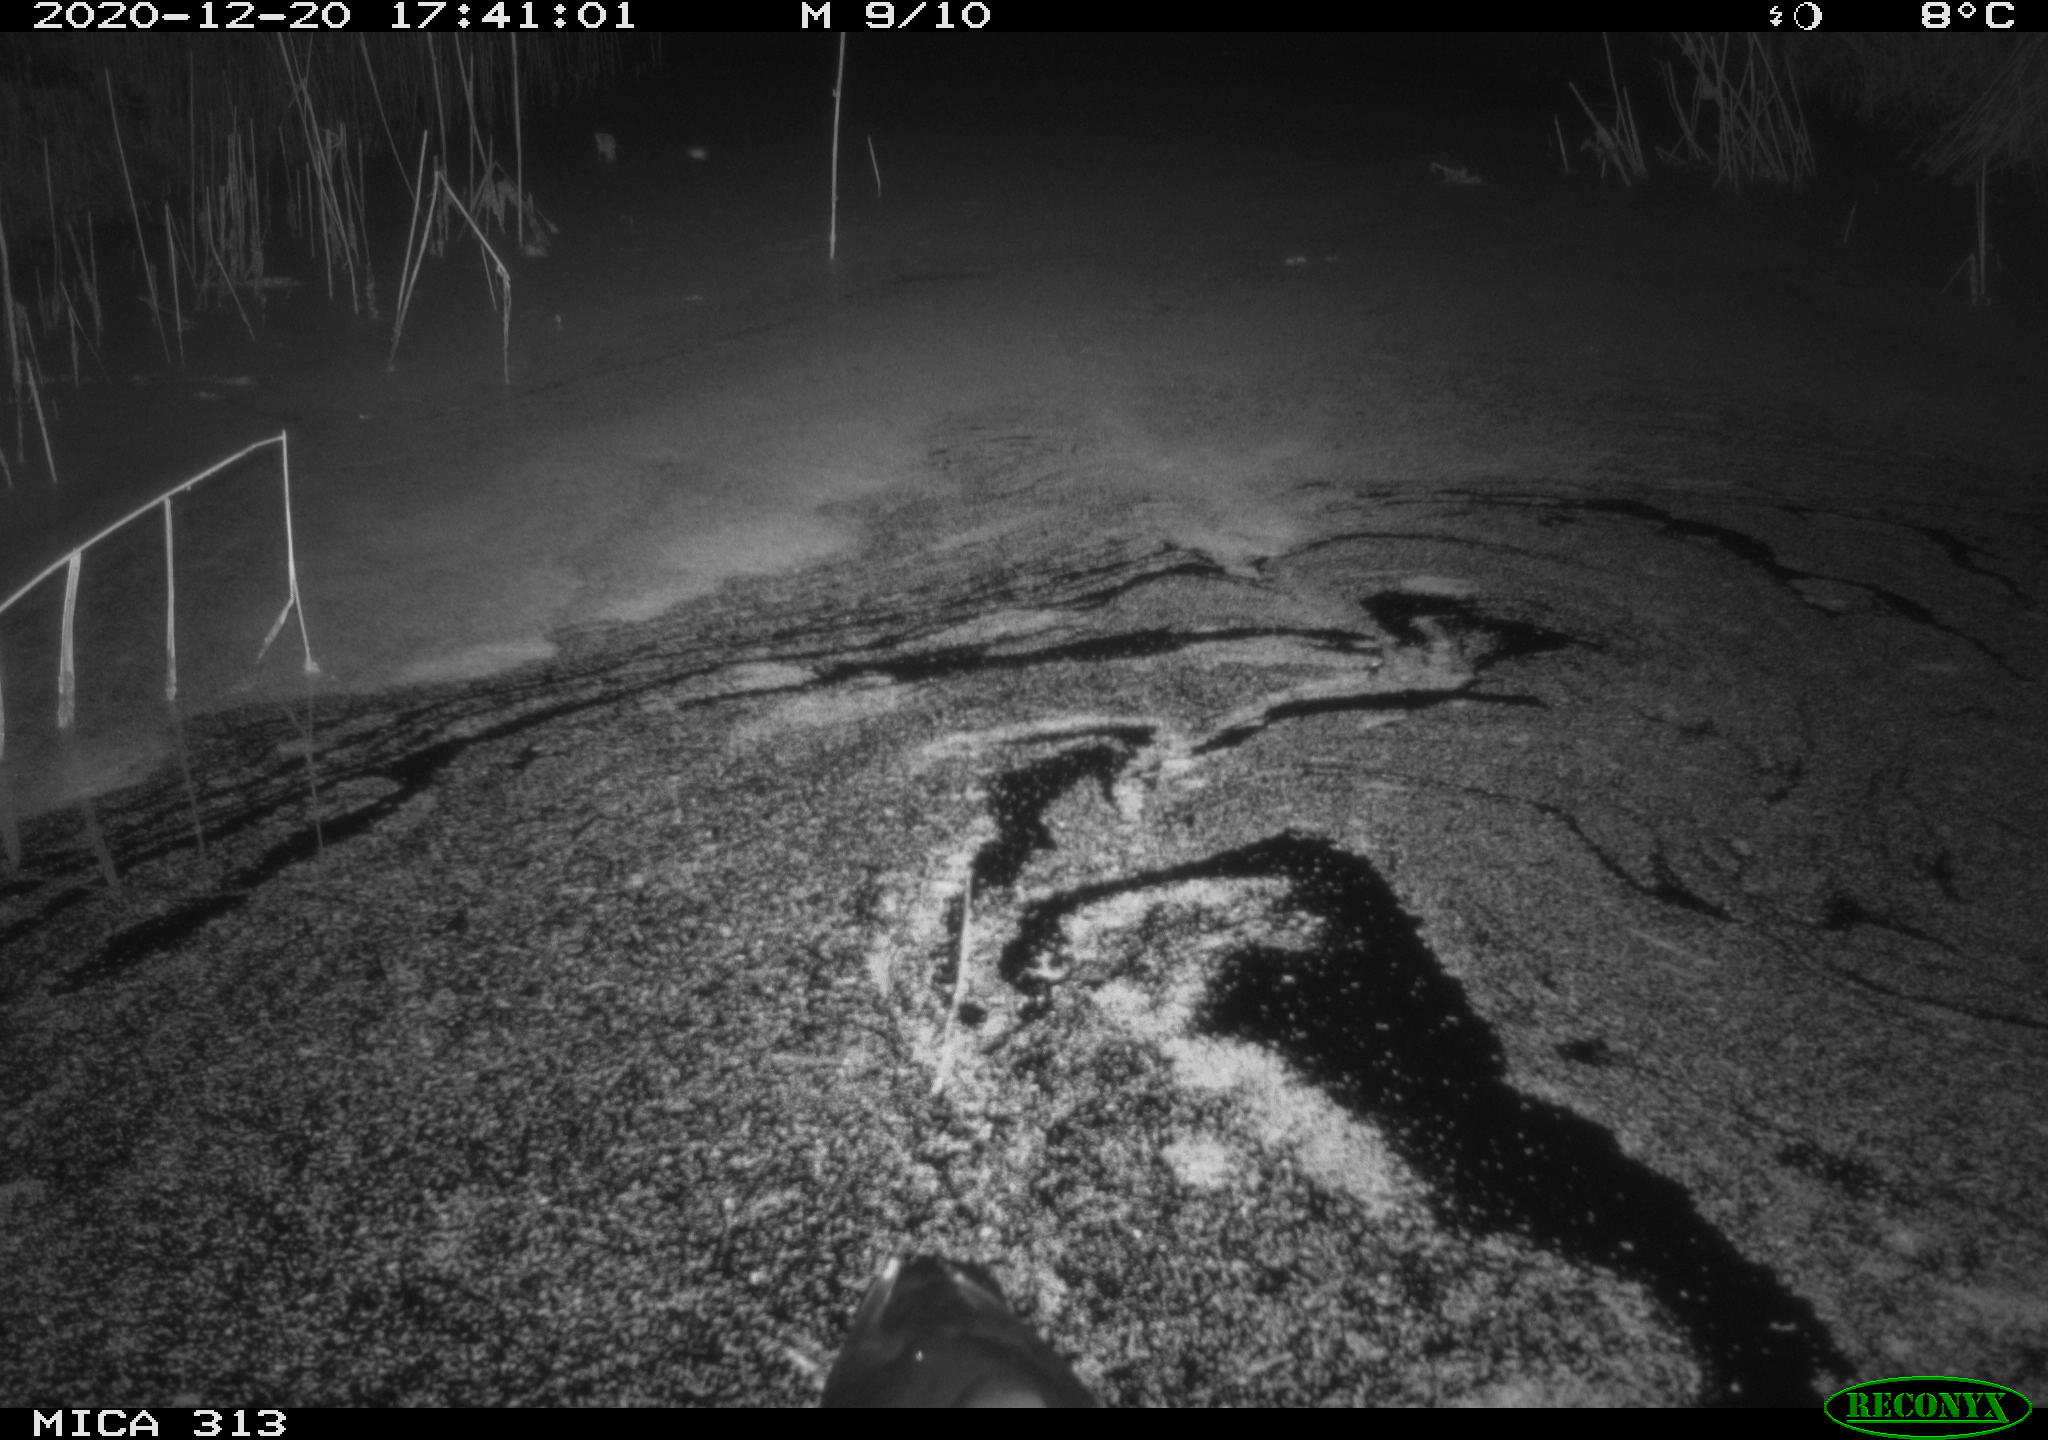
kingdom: Animalia
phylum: Chordata
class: Aves
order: Gruiformes
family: Rallidae
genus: Gallinula
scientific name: Gallinula chloropus
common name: Common moorhen
